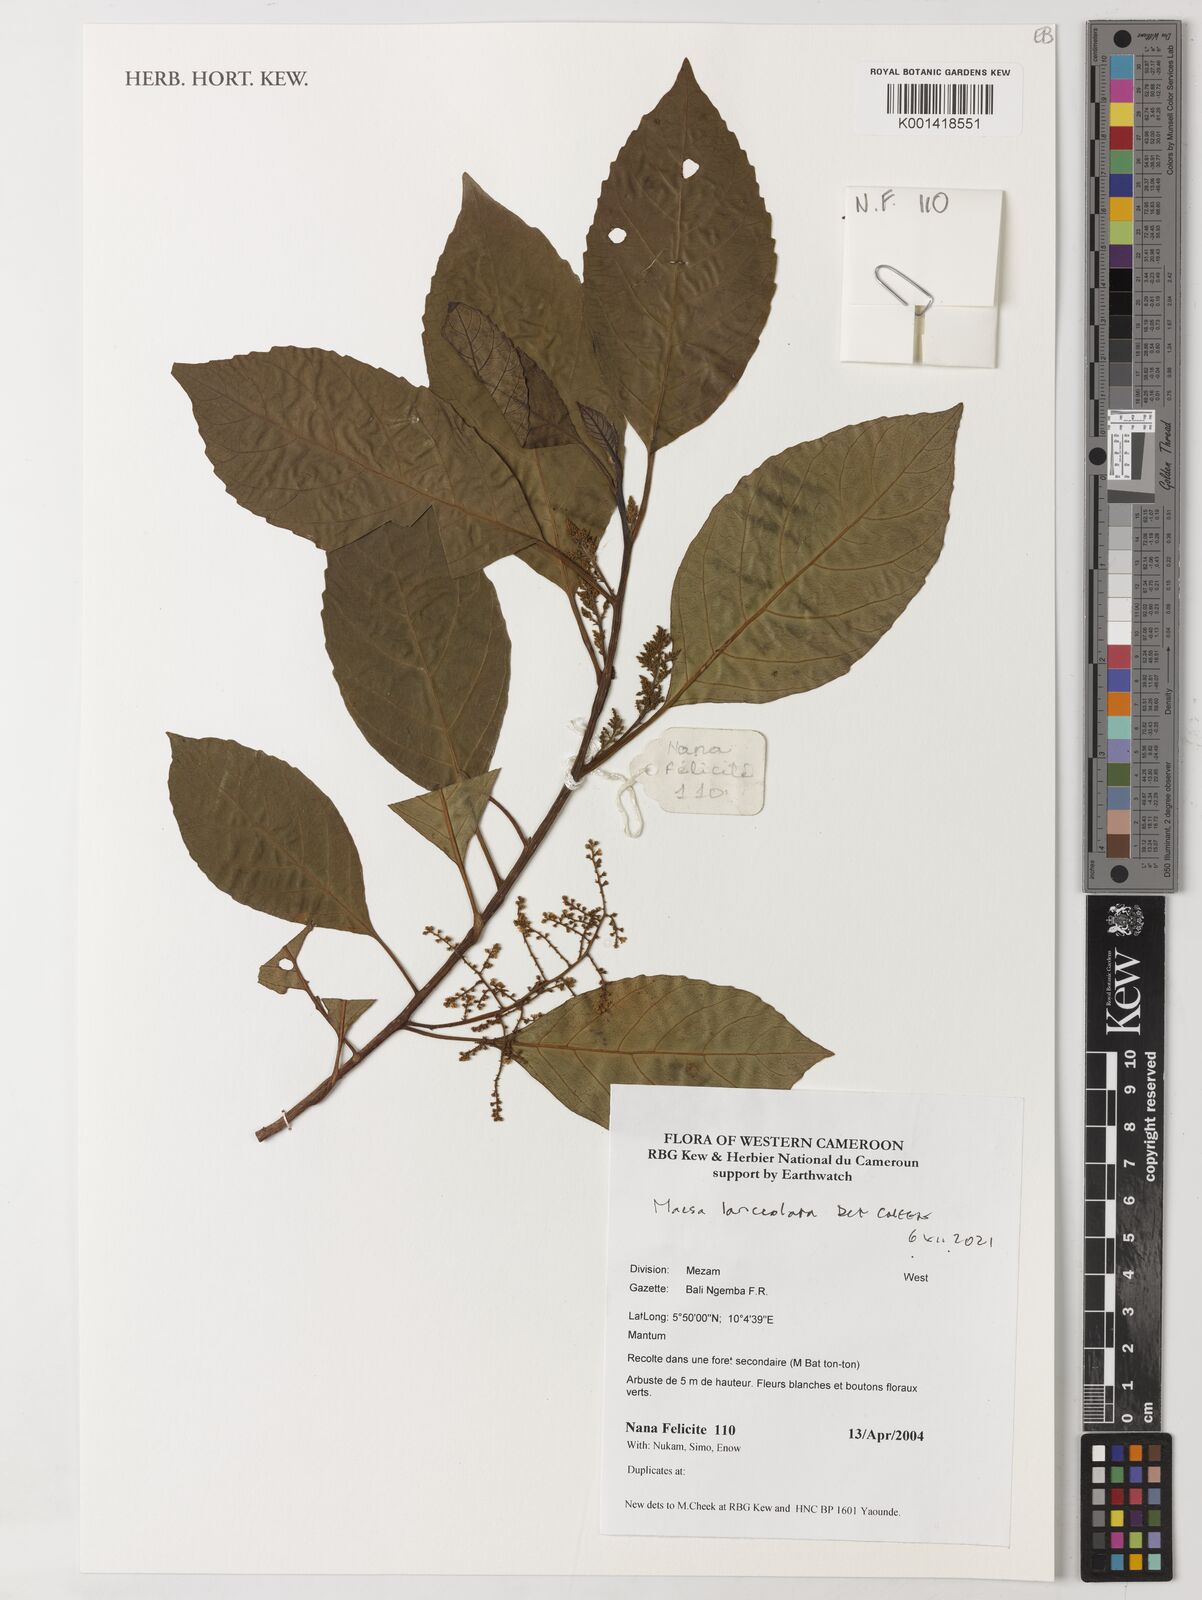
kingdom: Plantae
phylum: Tracheophyta
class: Magnoliopsida
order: Ericales
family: Primulaceae
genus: Maesa
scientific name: Maesa lanceolata
